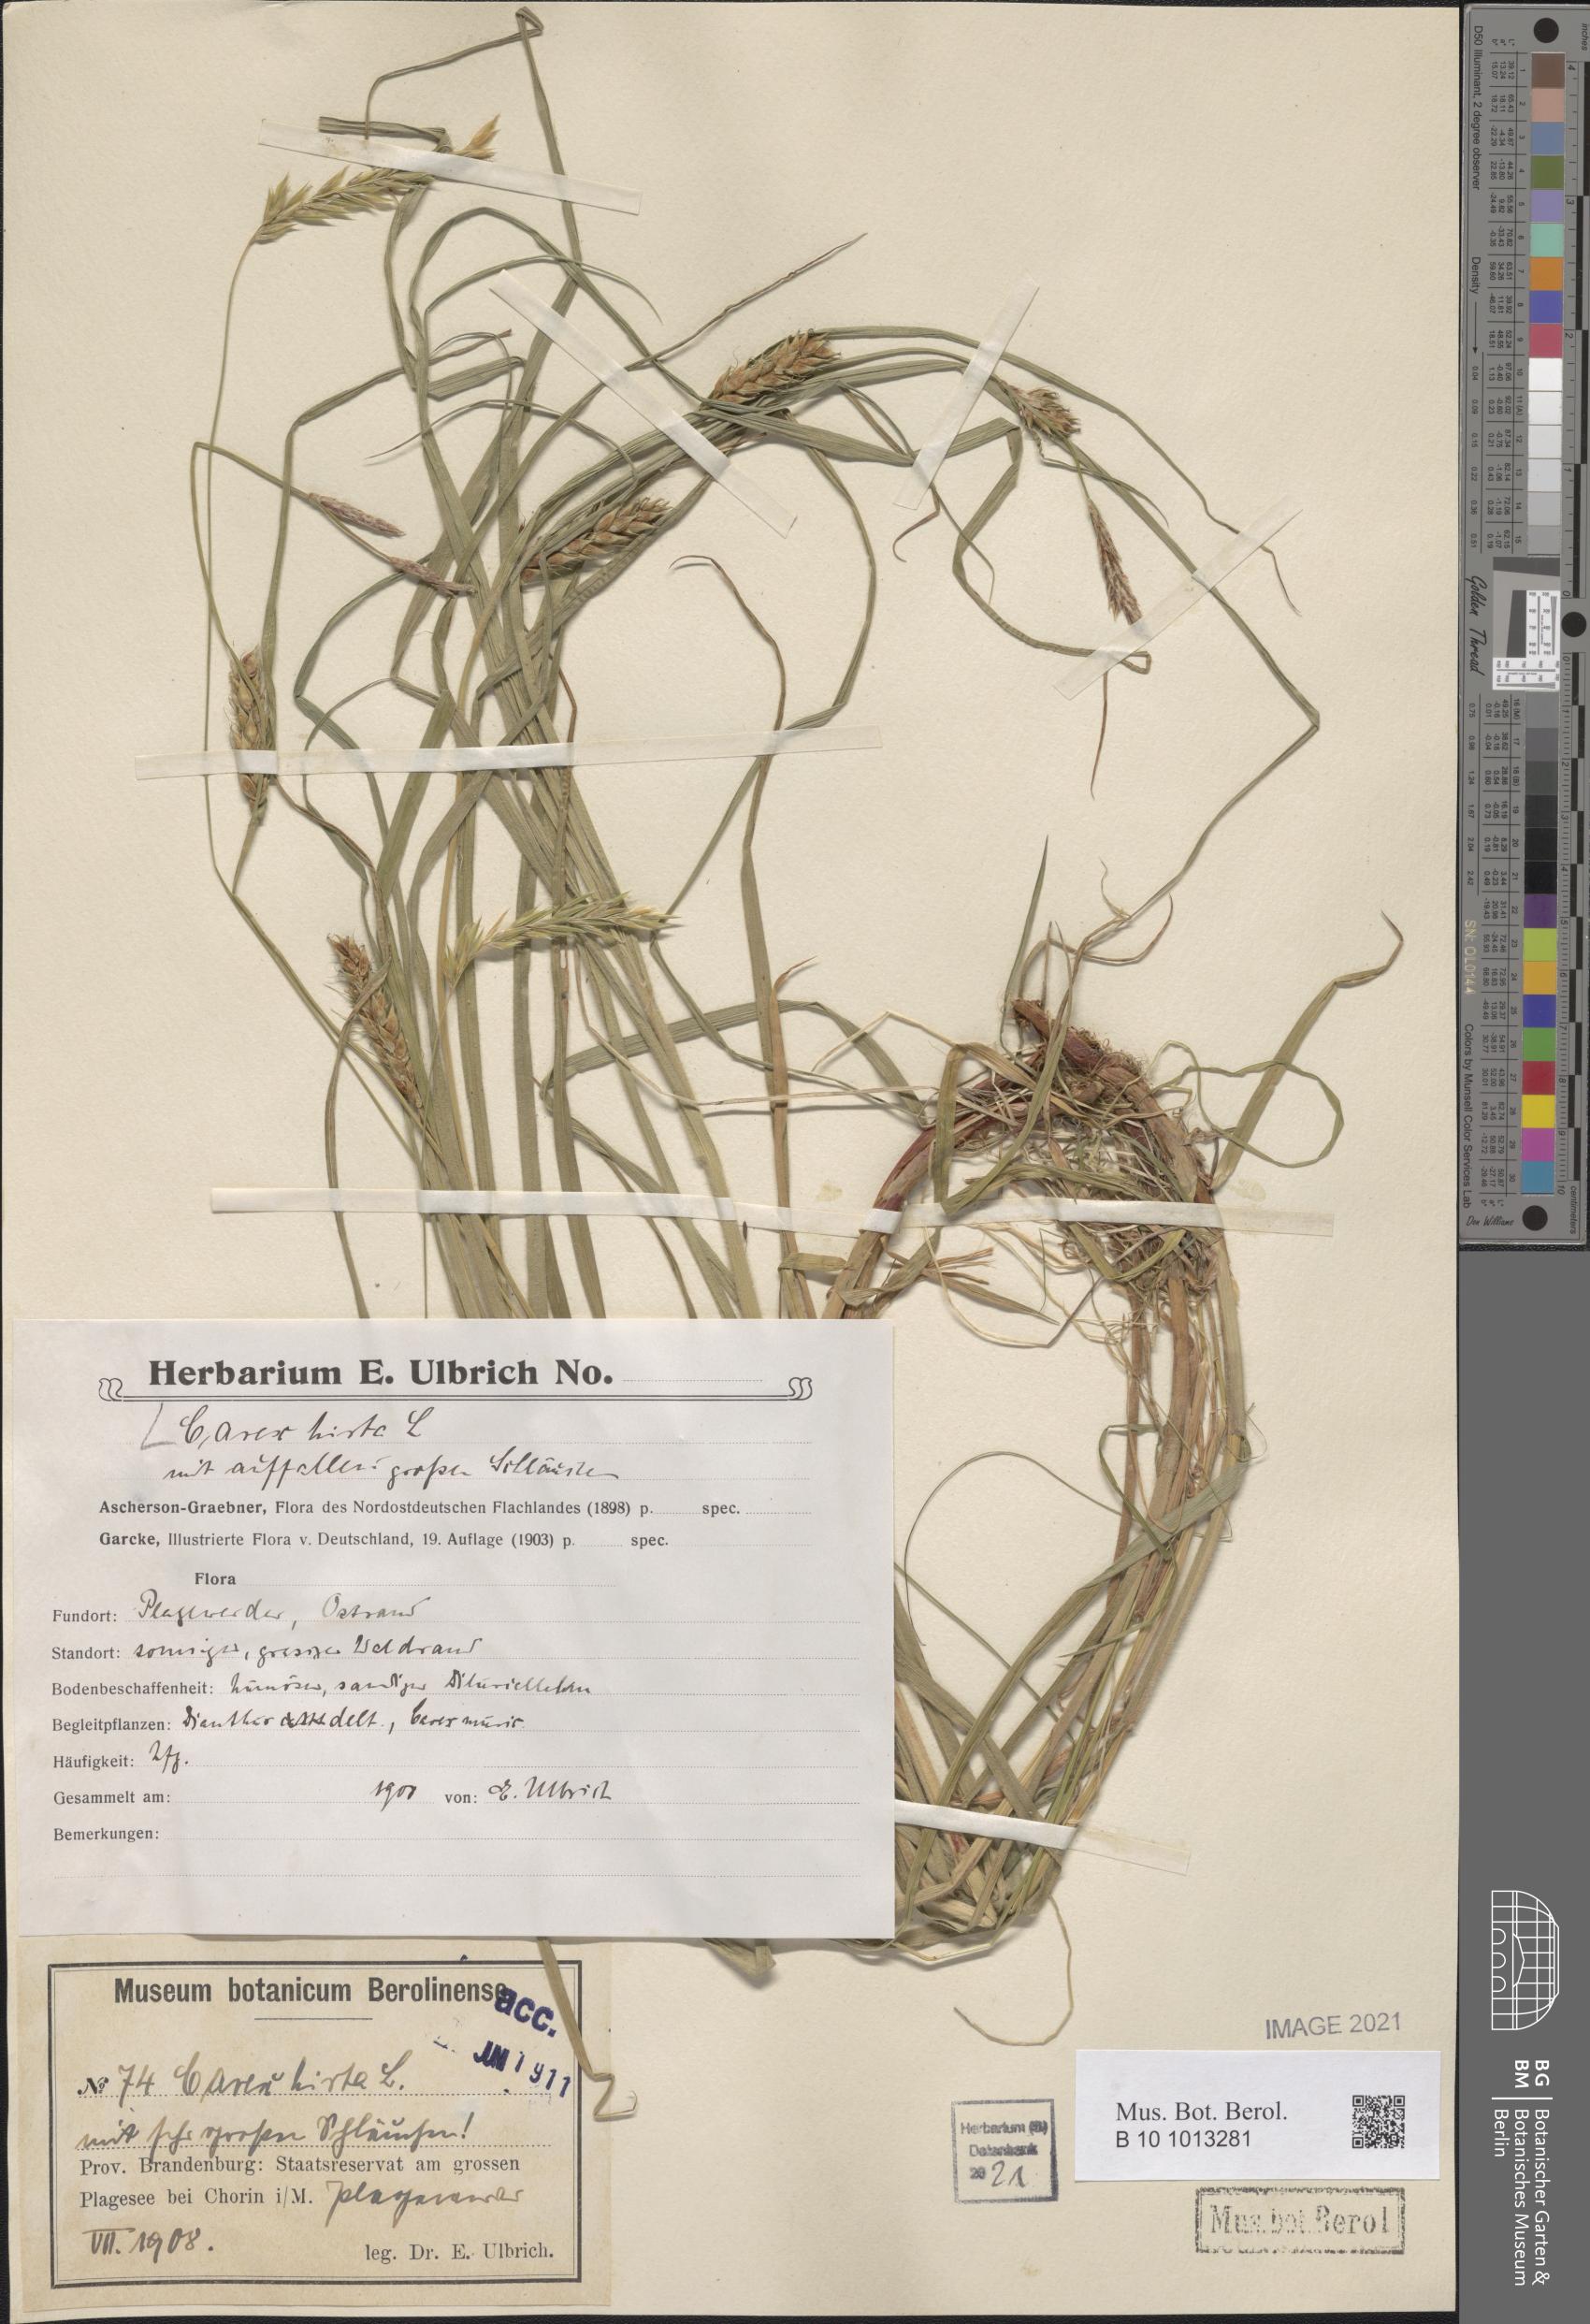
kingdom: Plantae
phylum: Tracheophyta
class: Liliopsida
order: Poales
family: Cyperaceae
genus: Carex
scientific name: Carex hirta
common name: Hairy sedge
